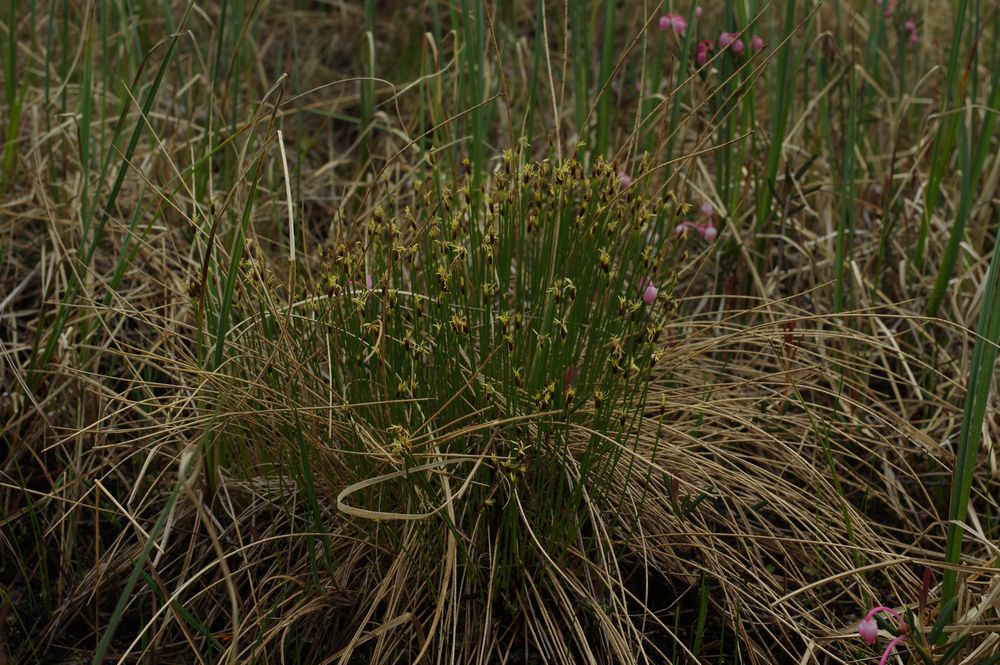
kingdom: Plantae
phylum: Tracheophyta
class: Liliopsida
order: Poales
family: Cyperaceae
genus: Trichophorum
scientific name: Trichophorum cespitosum
